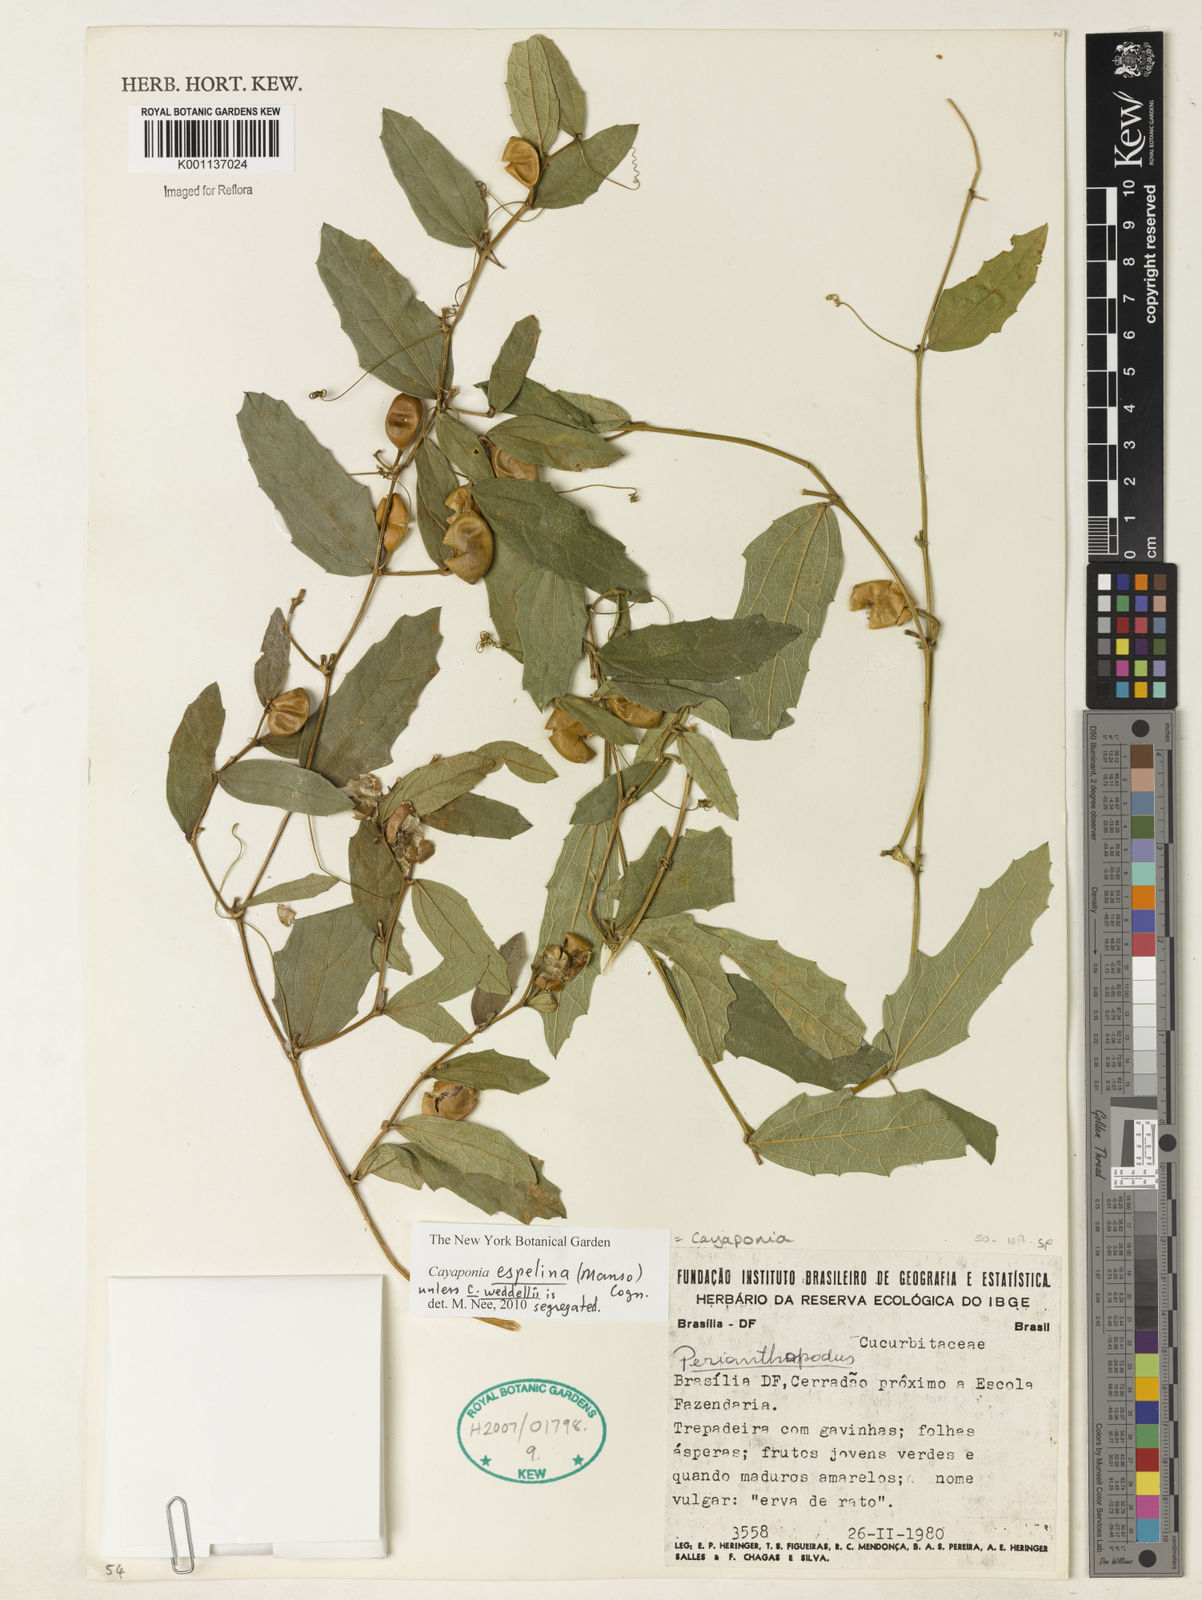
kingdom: Plantae
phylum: Tracheophyta
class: Magnoliopsida
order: Cucurbitales
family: Cucurbitaceae
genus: Cayaponia
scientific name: Cayaponia espelina
